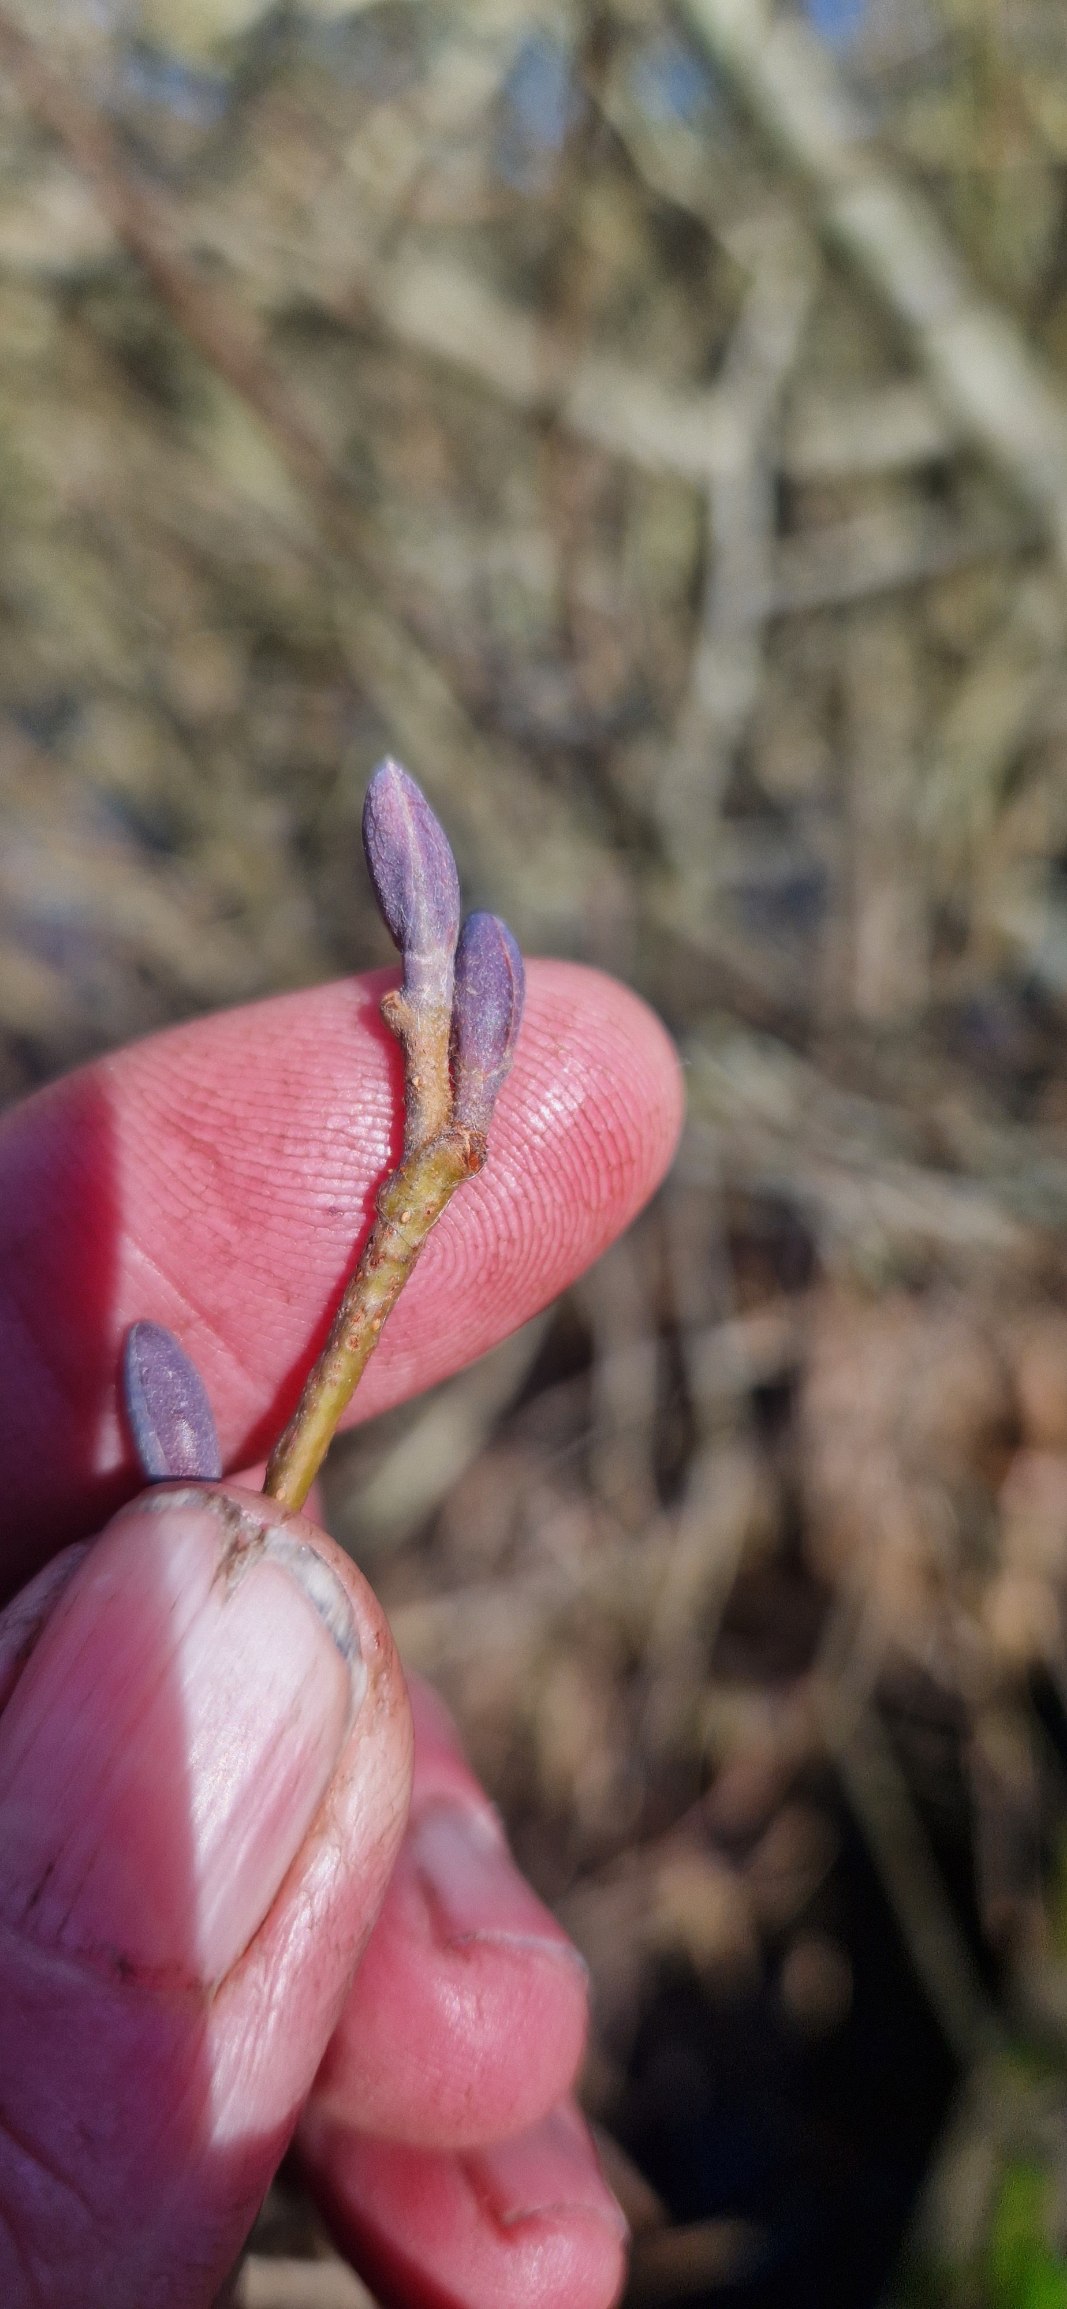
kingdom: Plantae
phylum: Tracheophyta
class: Magnoliopsida
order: Fagales
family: Betulaceae
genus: Alnus
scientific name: Alnus glutinosa
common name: Rød-el
